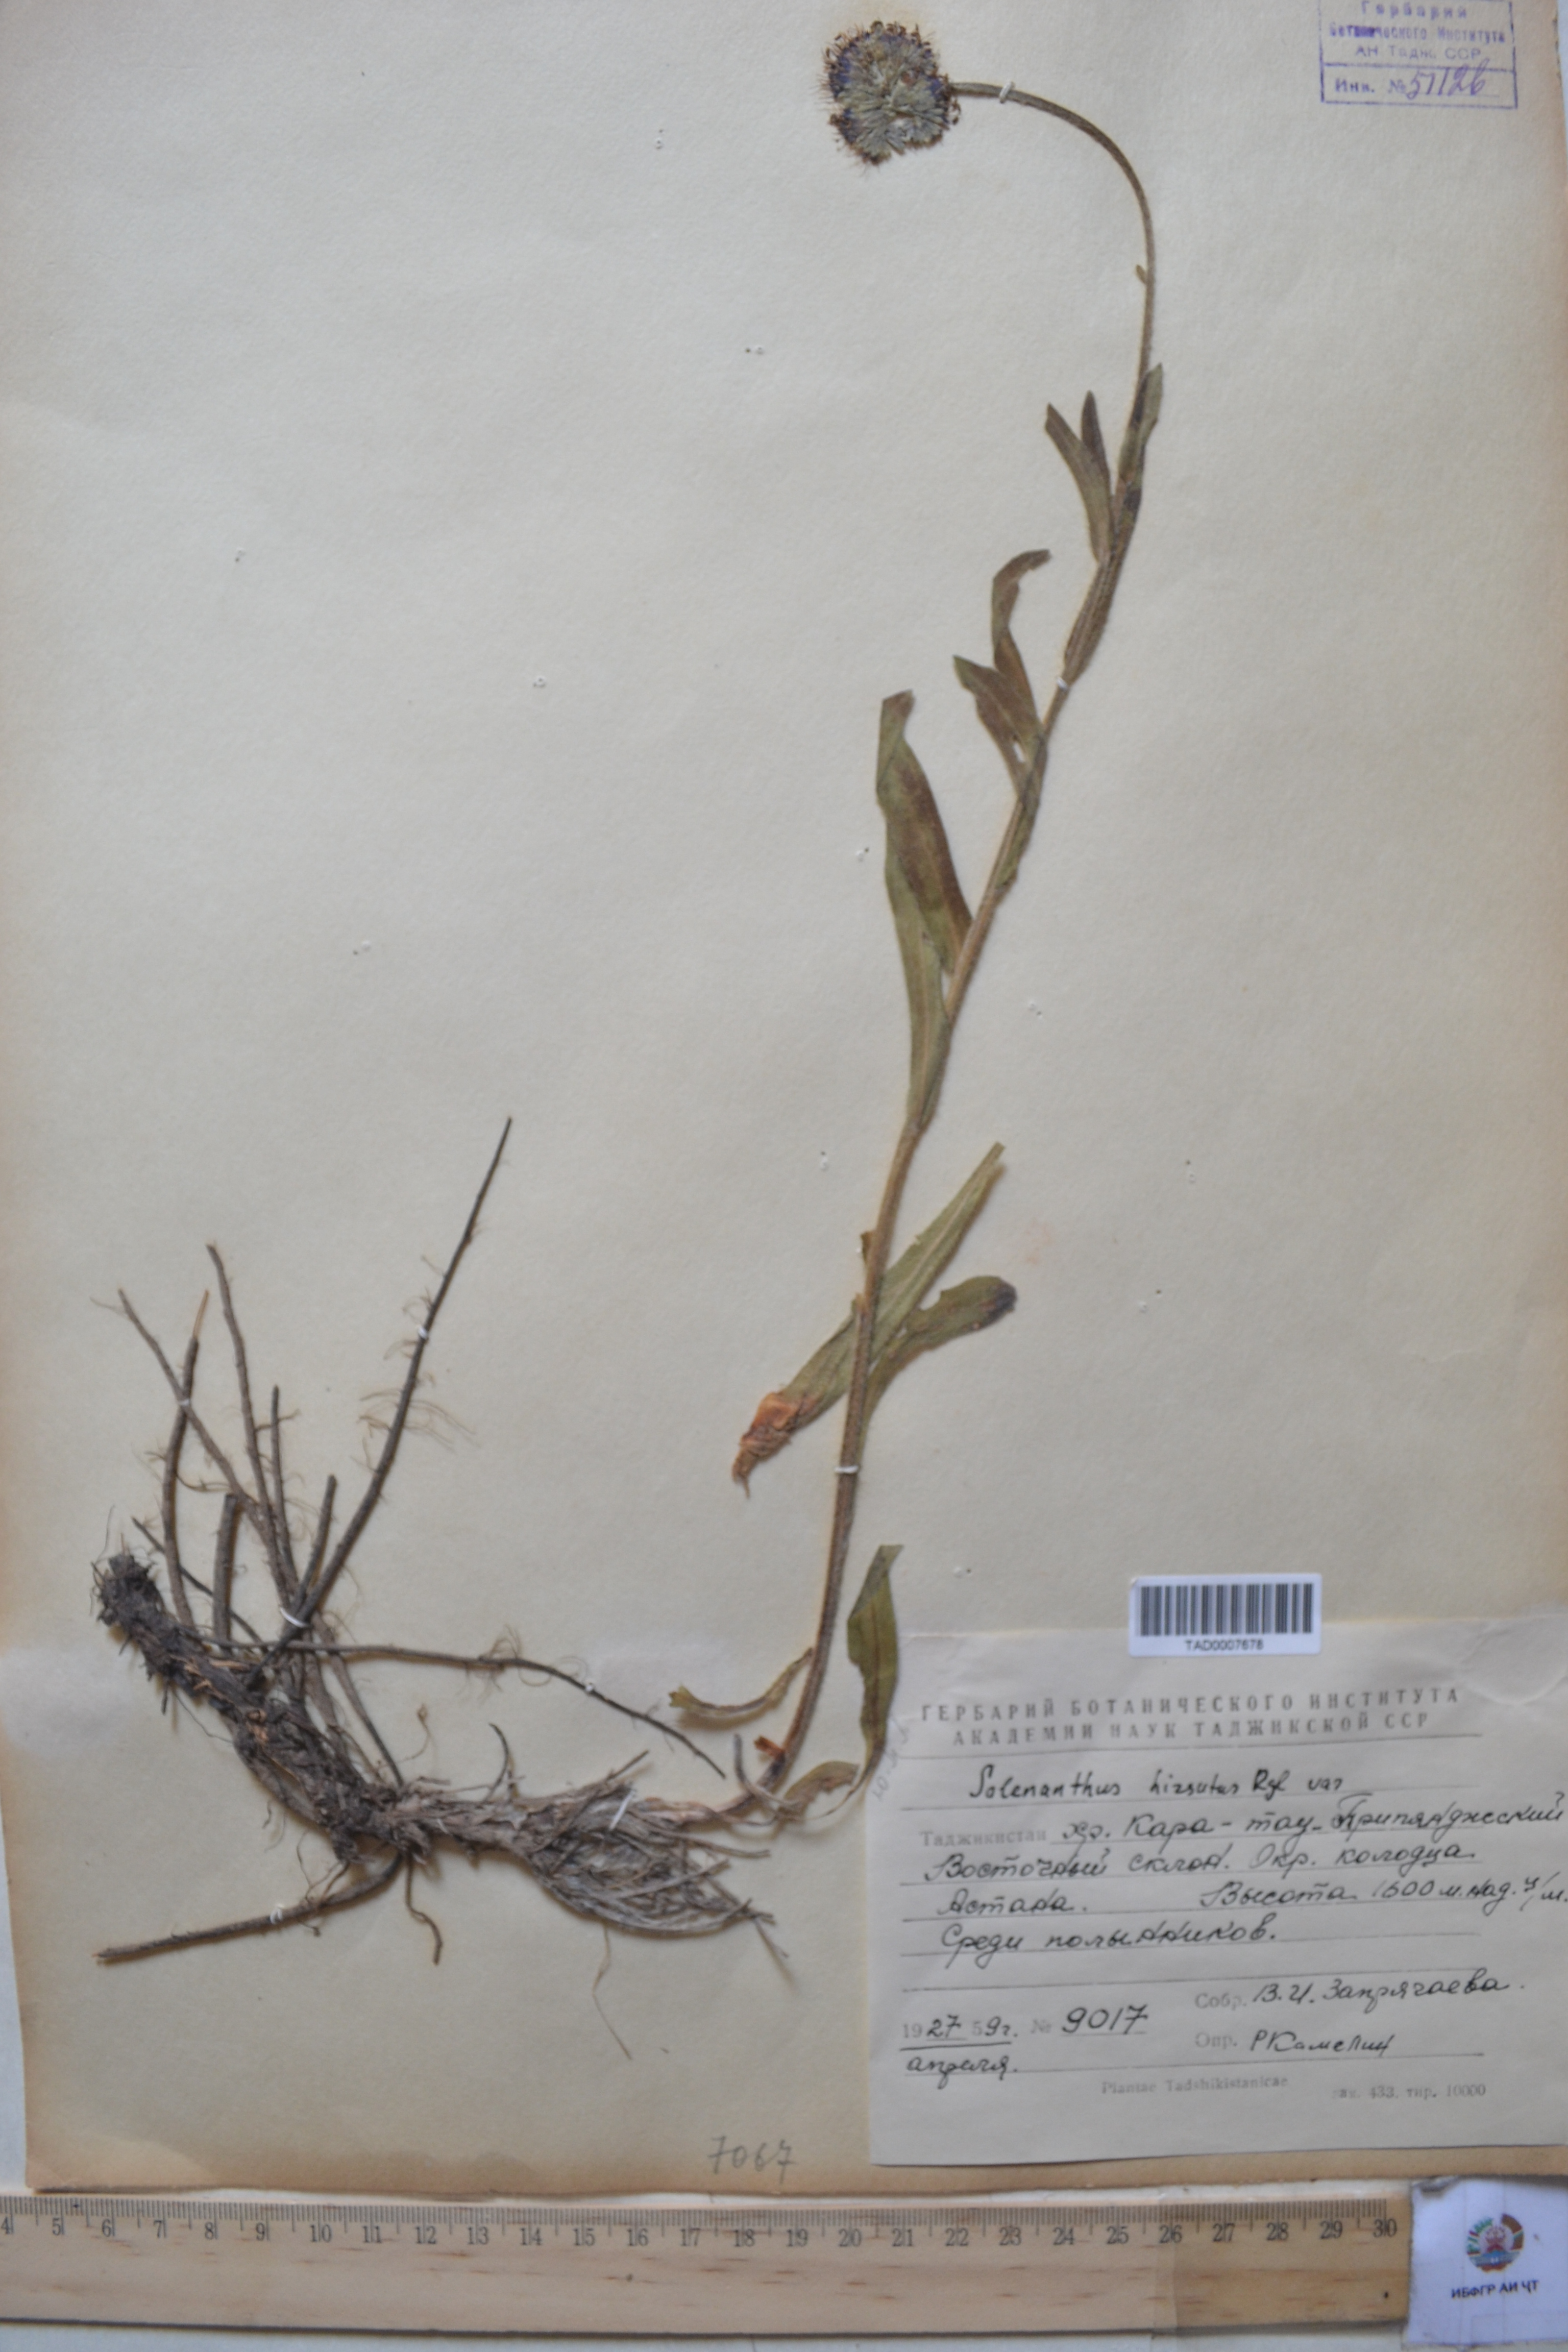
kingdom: Plantae
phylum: Tracheophyta
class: Magnoliopsida
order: Boraginales
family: Boraginaceae
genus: Solenanthus
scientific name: Solenanthus hirsutus
